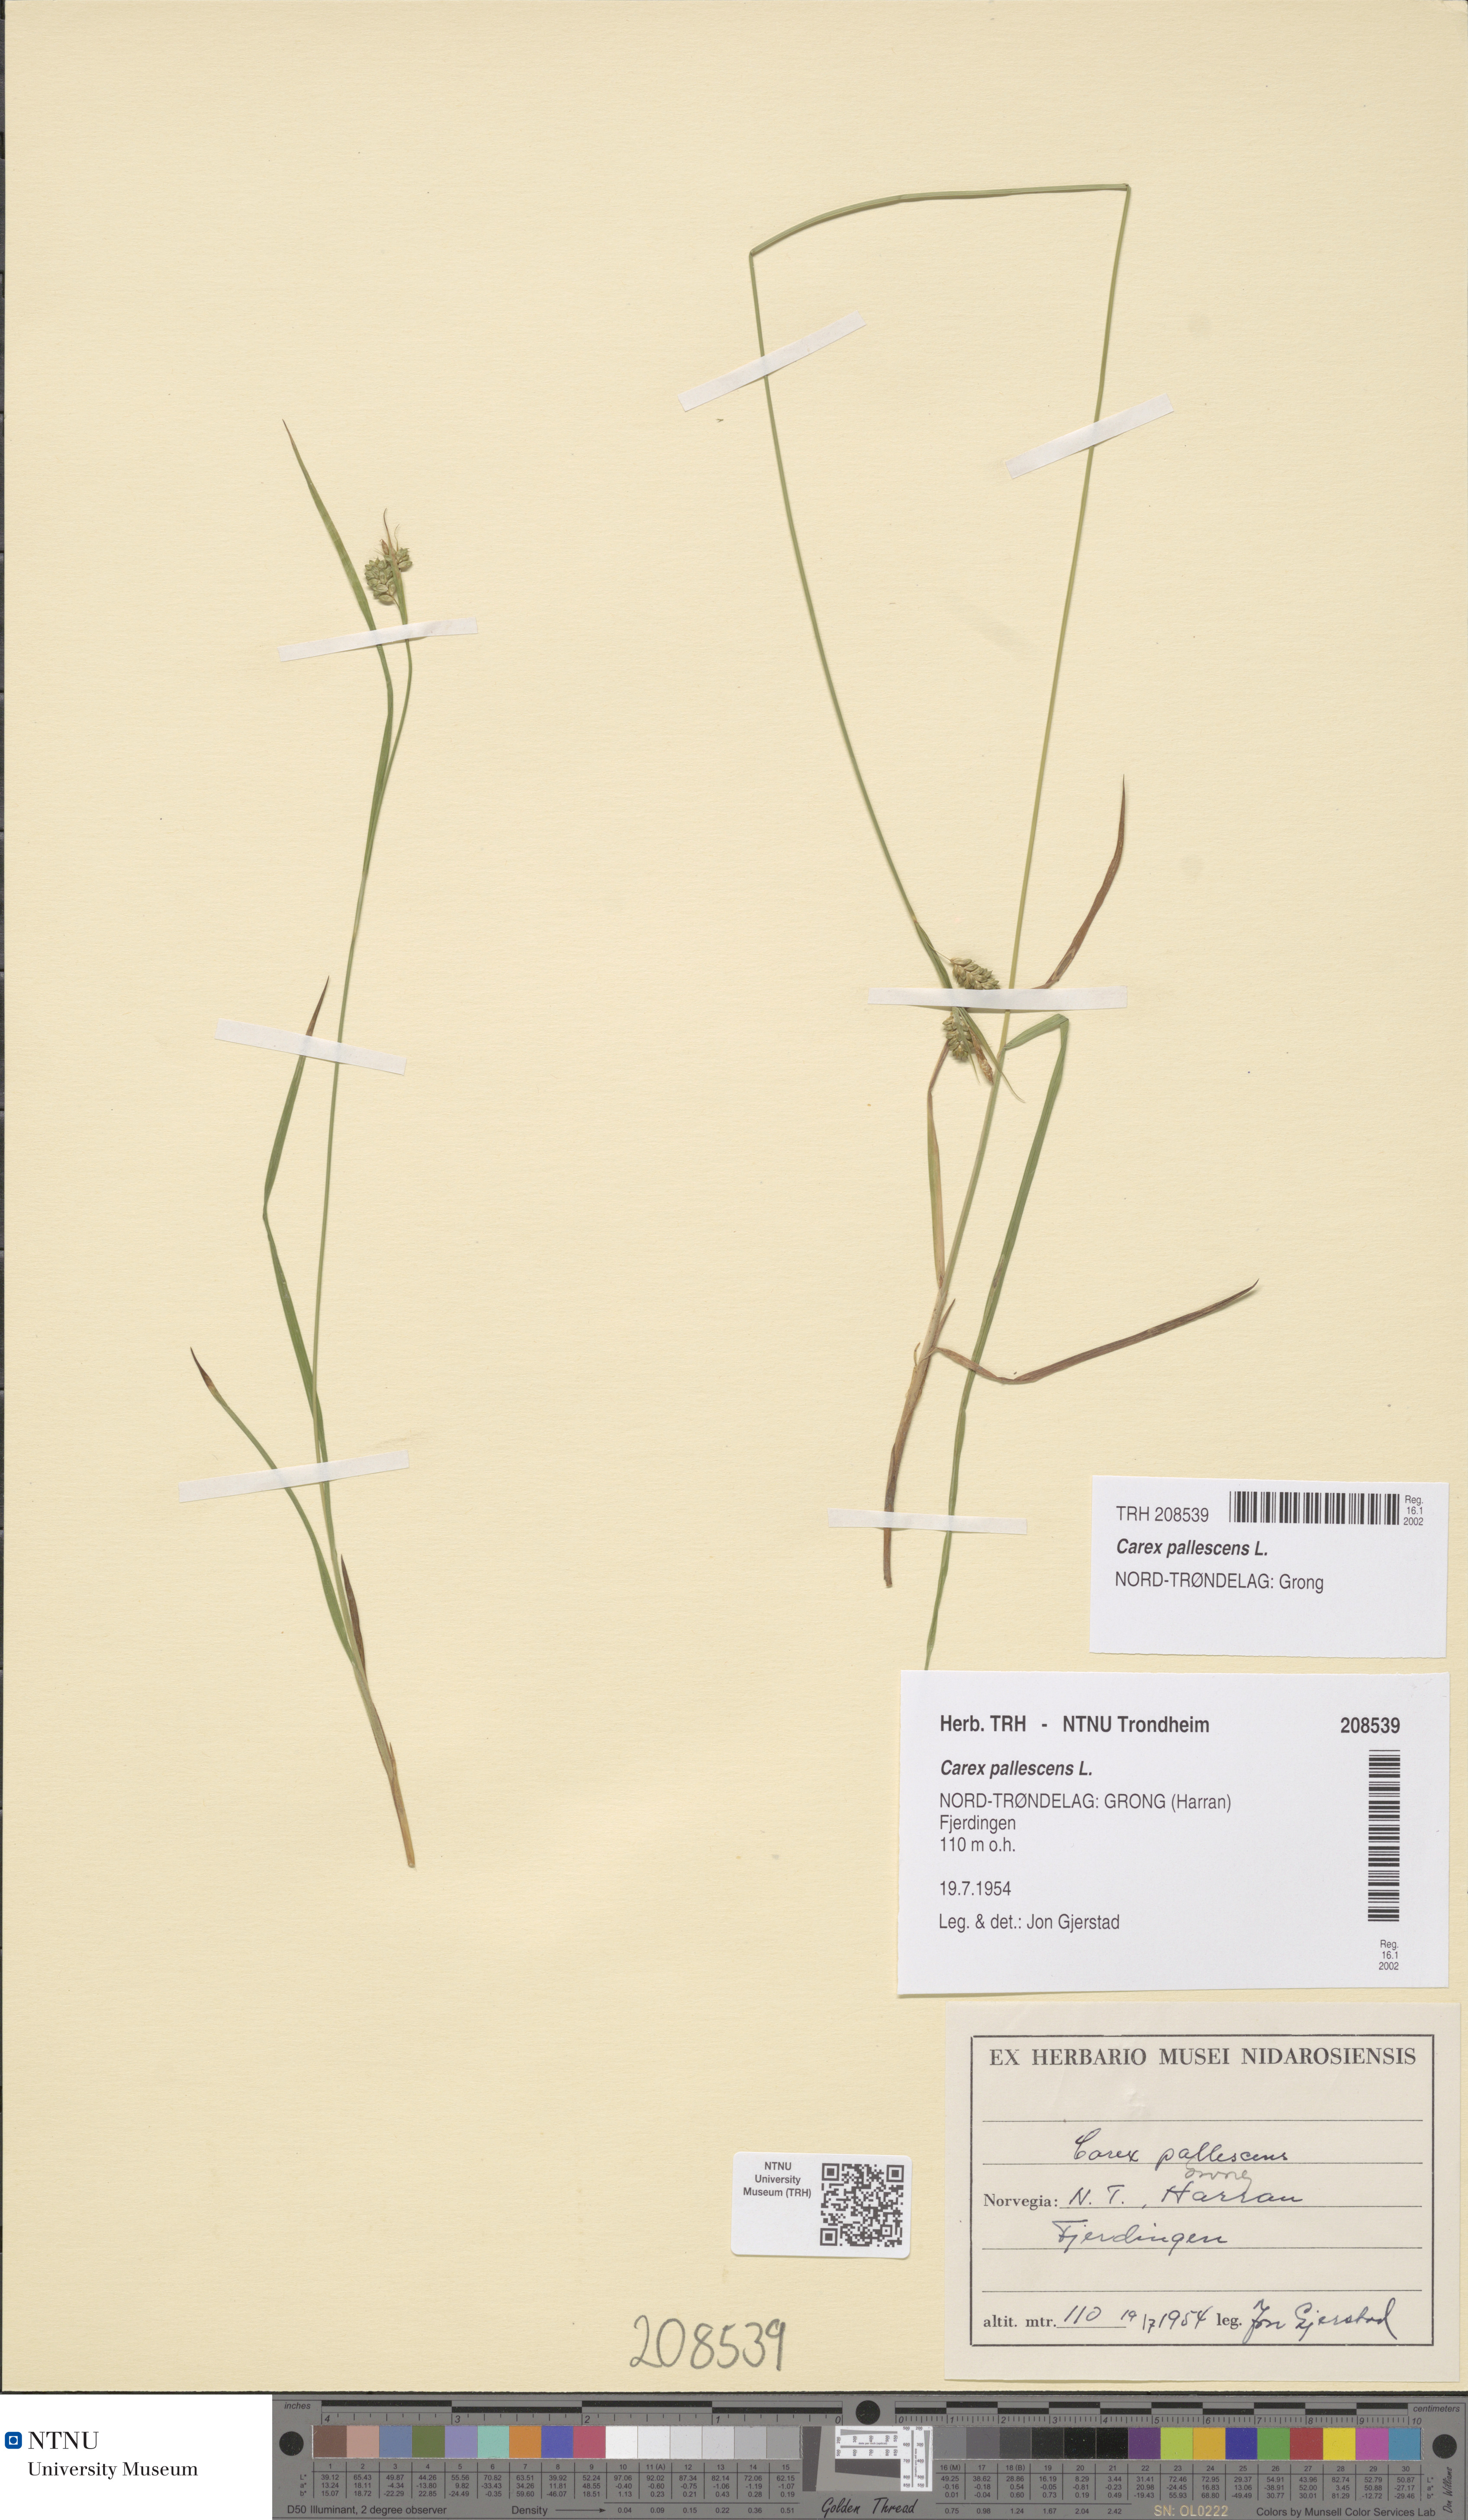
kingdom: Plantae
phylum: Tracheophyta
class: Liliopsida
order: Poales
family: Cyperaceae
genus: Carex
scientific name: Carex pallescens
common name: Pale sedge
